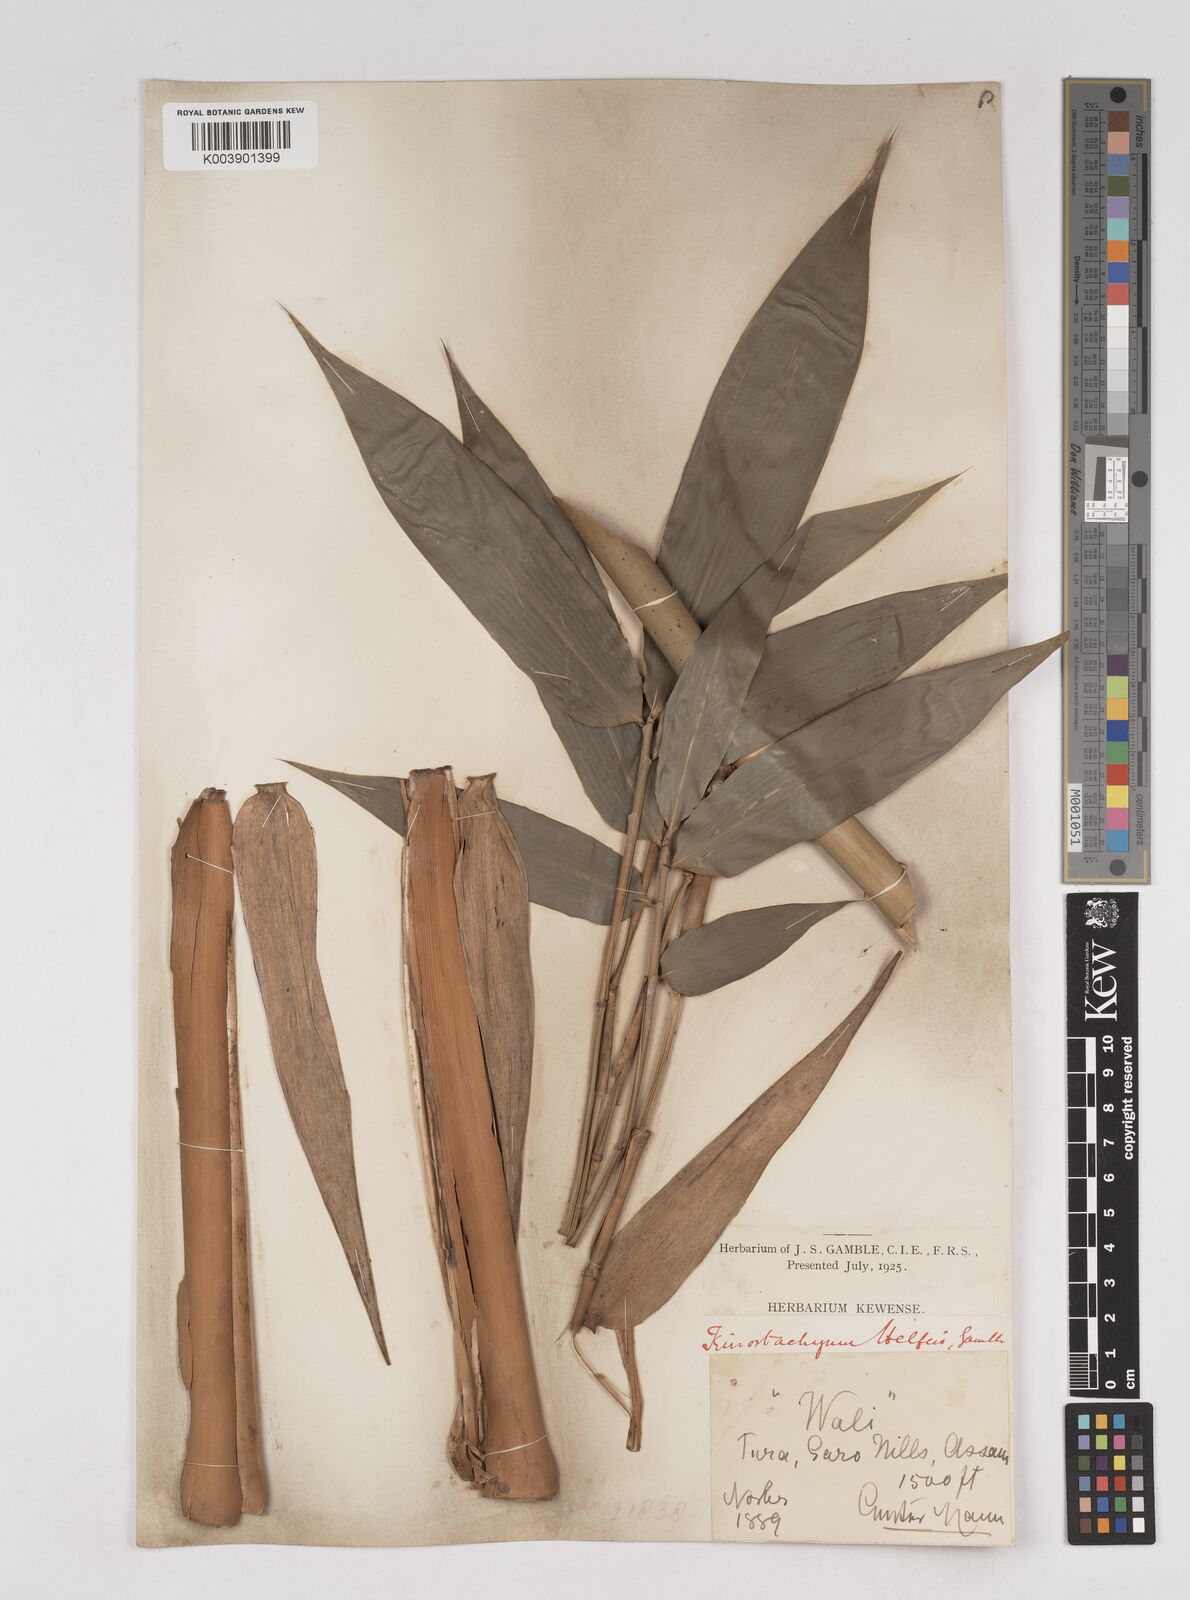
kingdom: Plantae
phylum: Tracheophyta
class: Liliopsida
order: Poales
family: Poaceae
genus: Schizostachyum
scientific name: Schizostachyum helferi
